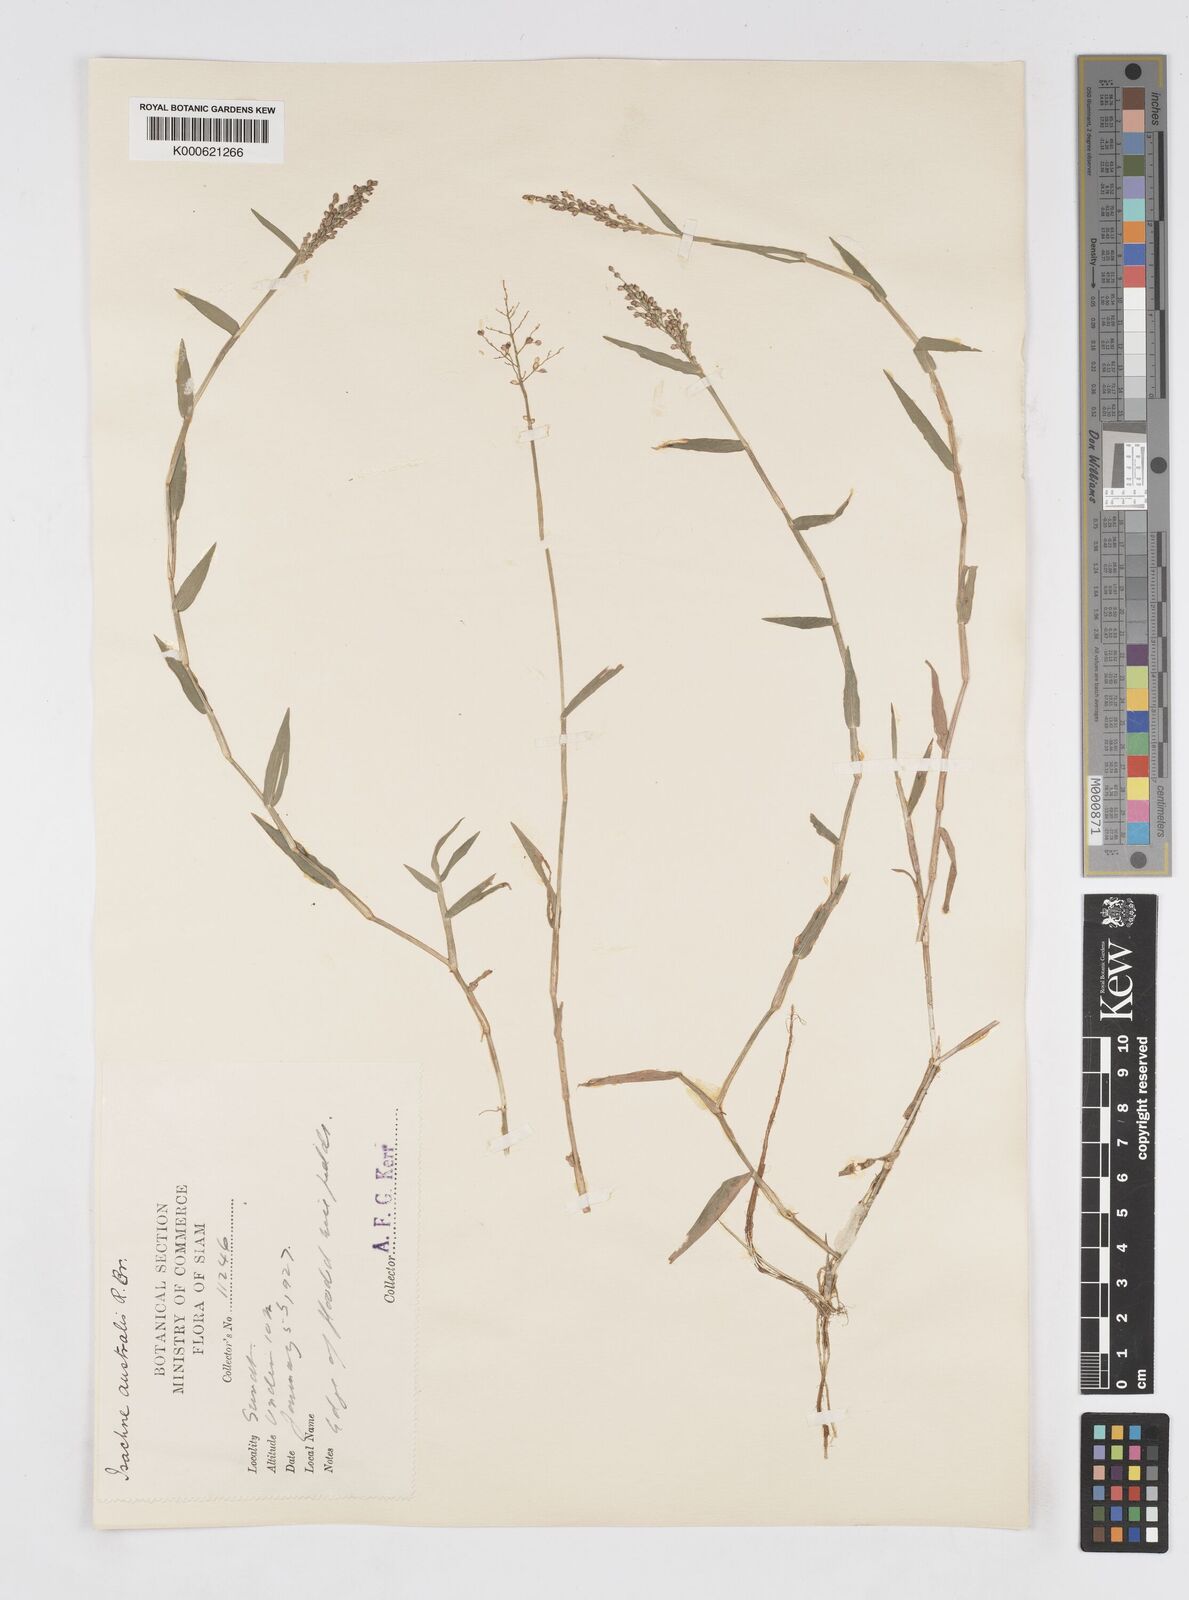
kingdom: Plantae
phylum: Tracheophyta
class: Liliopsida
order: Poales
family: Poaceae
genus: Isachne
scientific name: Isachne globosa
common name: Swamp millet
